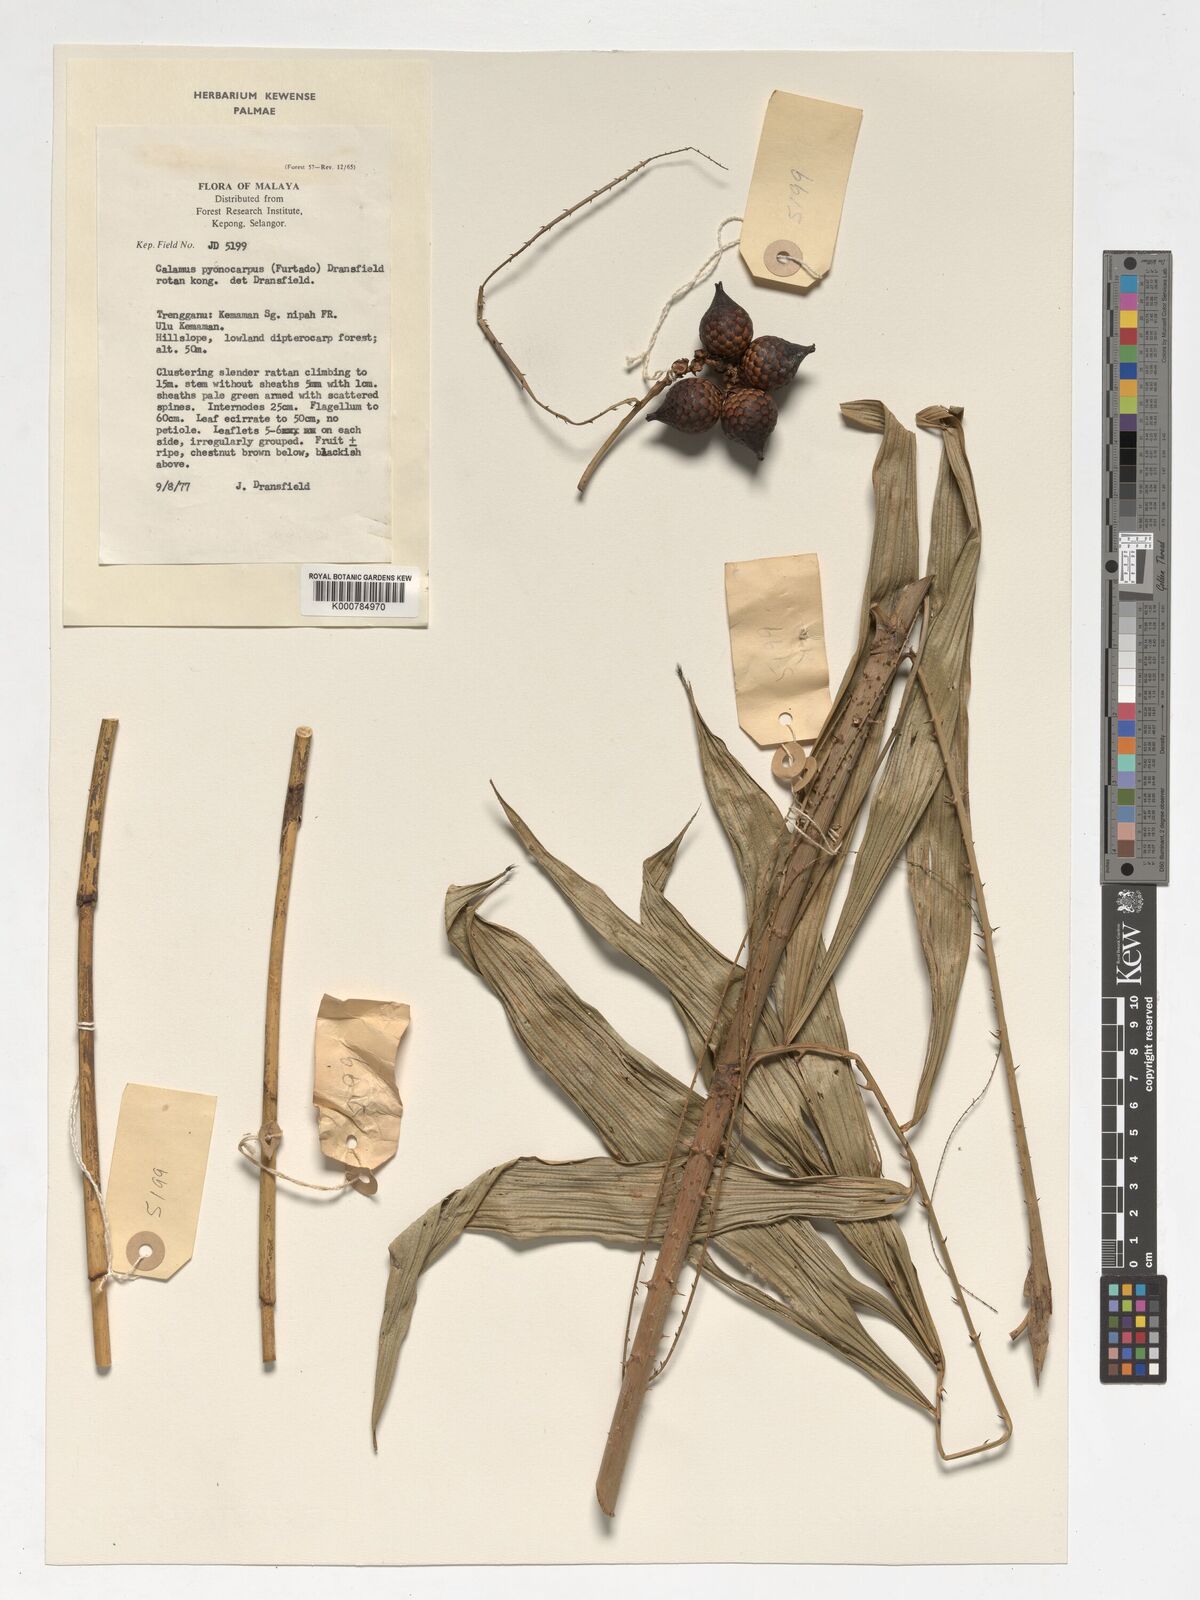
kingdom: Plantae
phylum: Tracheophyta
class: Liliopsida
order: Arecales
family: Arecaceae
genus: Calamus
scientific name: Calamus pycnocarpus
